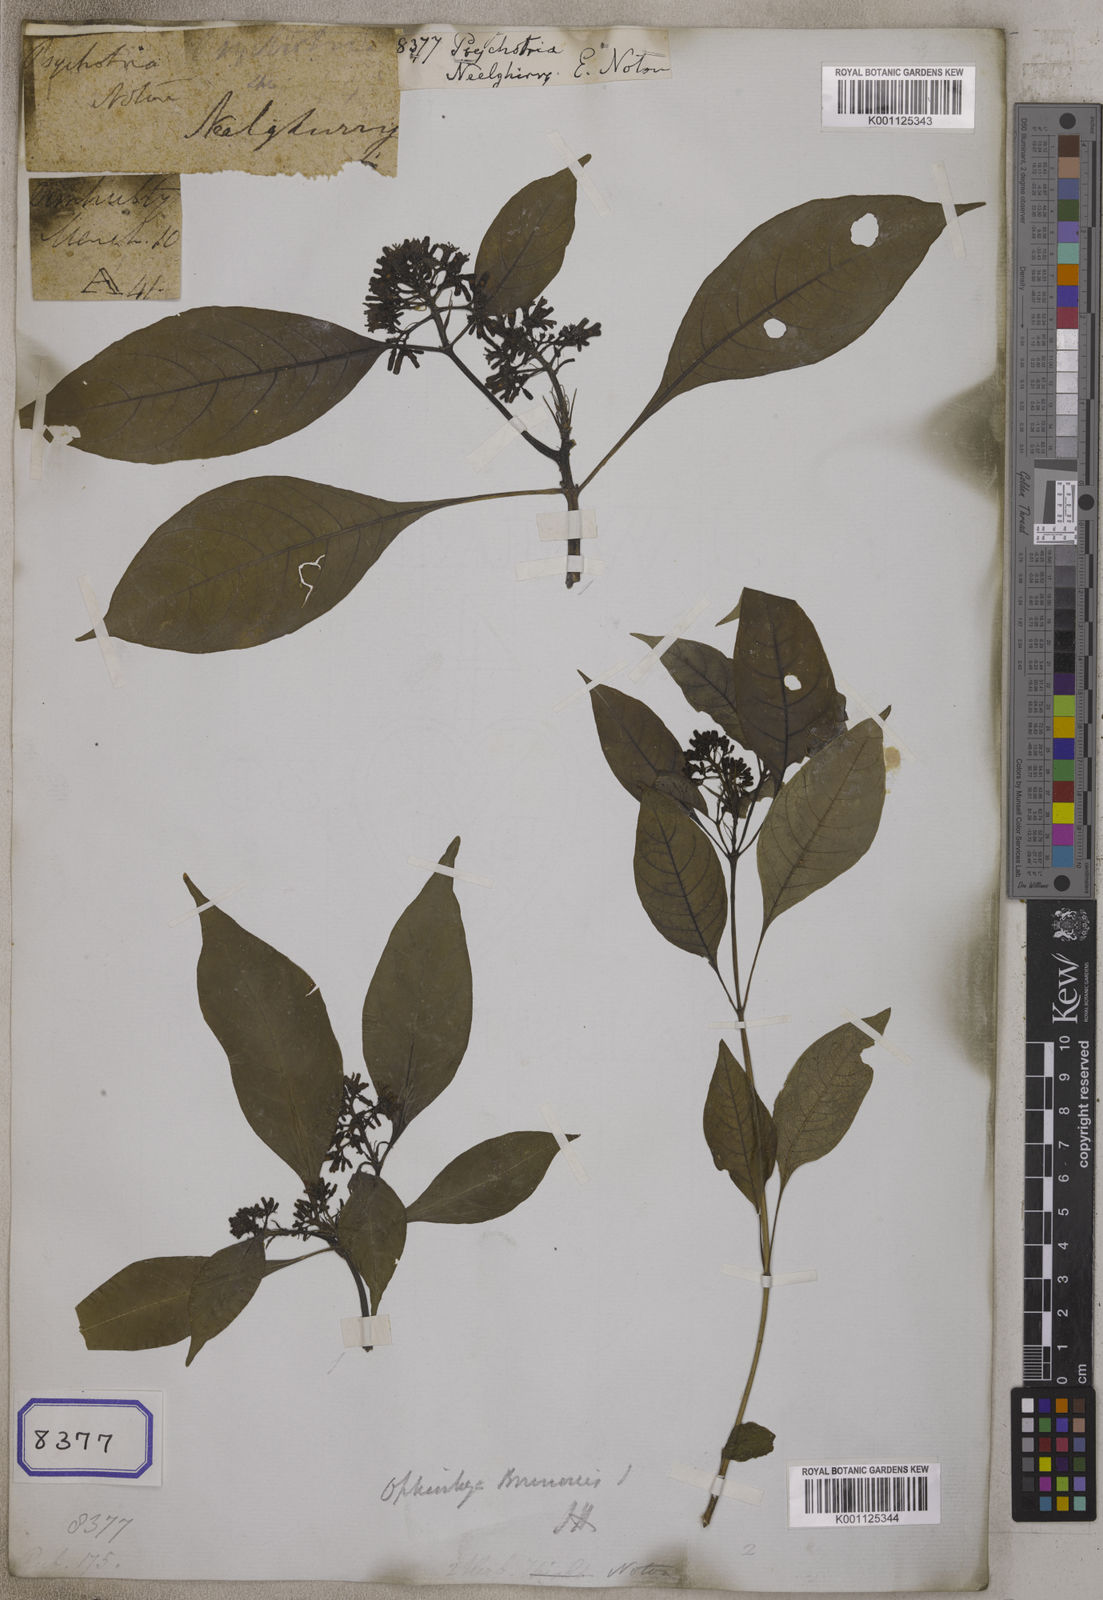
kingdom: Plantae
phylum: Tracheophyta
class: Magnoliopsida
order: Gentianales
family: Rubiaceae
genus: Psychotria
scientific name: Psychotria
